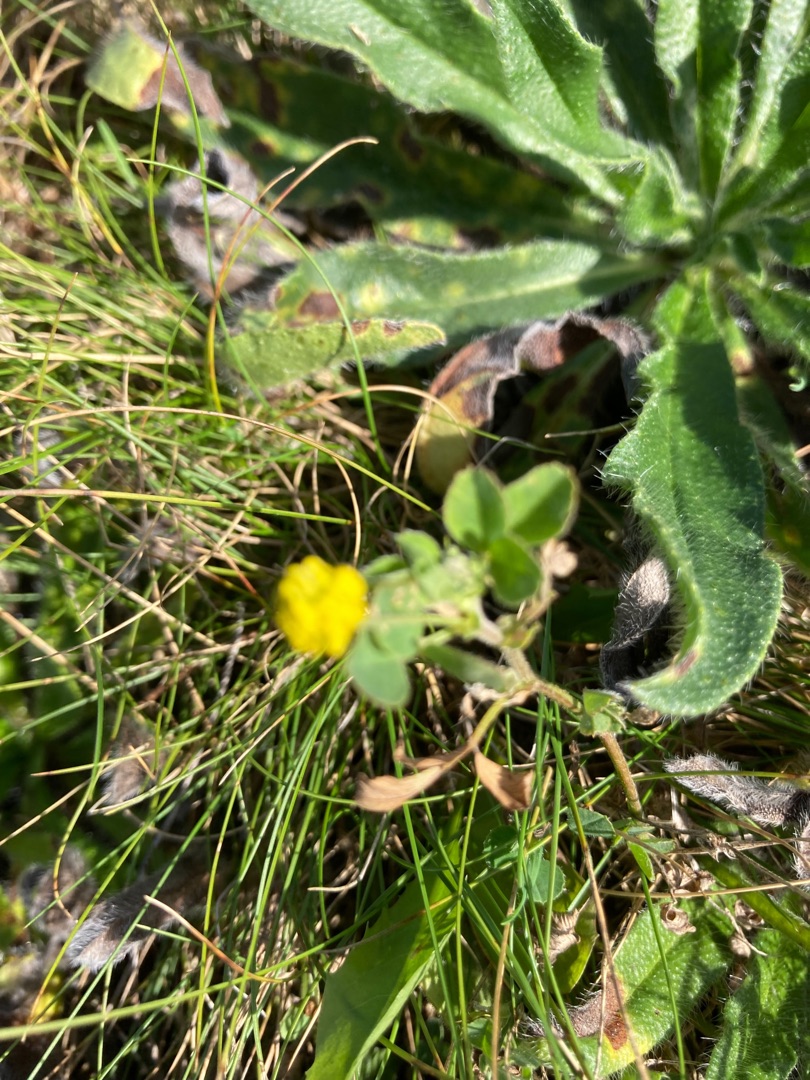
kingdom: Plantae
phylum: Tracheophyta
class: Magnoliopsida
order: Fabales
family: Fabaceae
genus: Medicago
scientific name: Medicago lupulina
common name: Humle-sneglebælg
